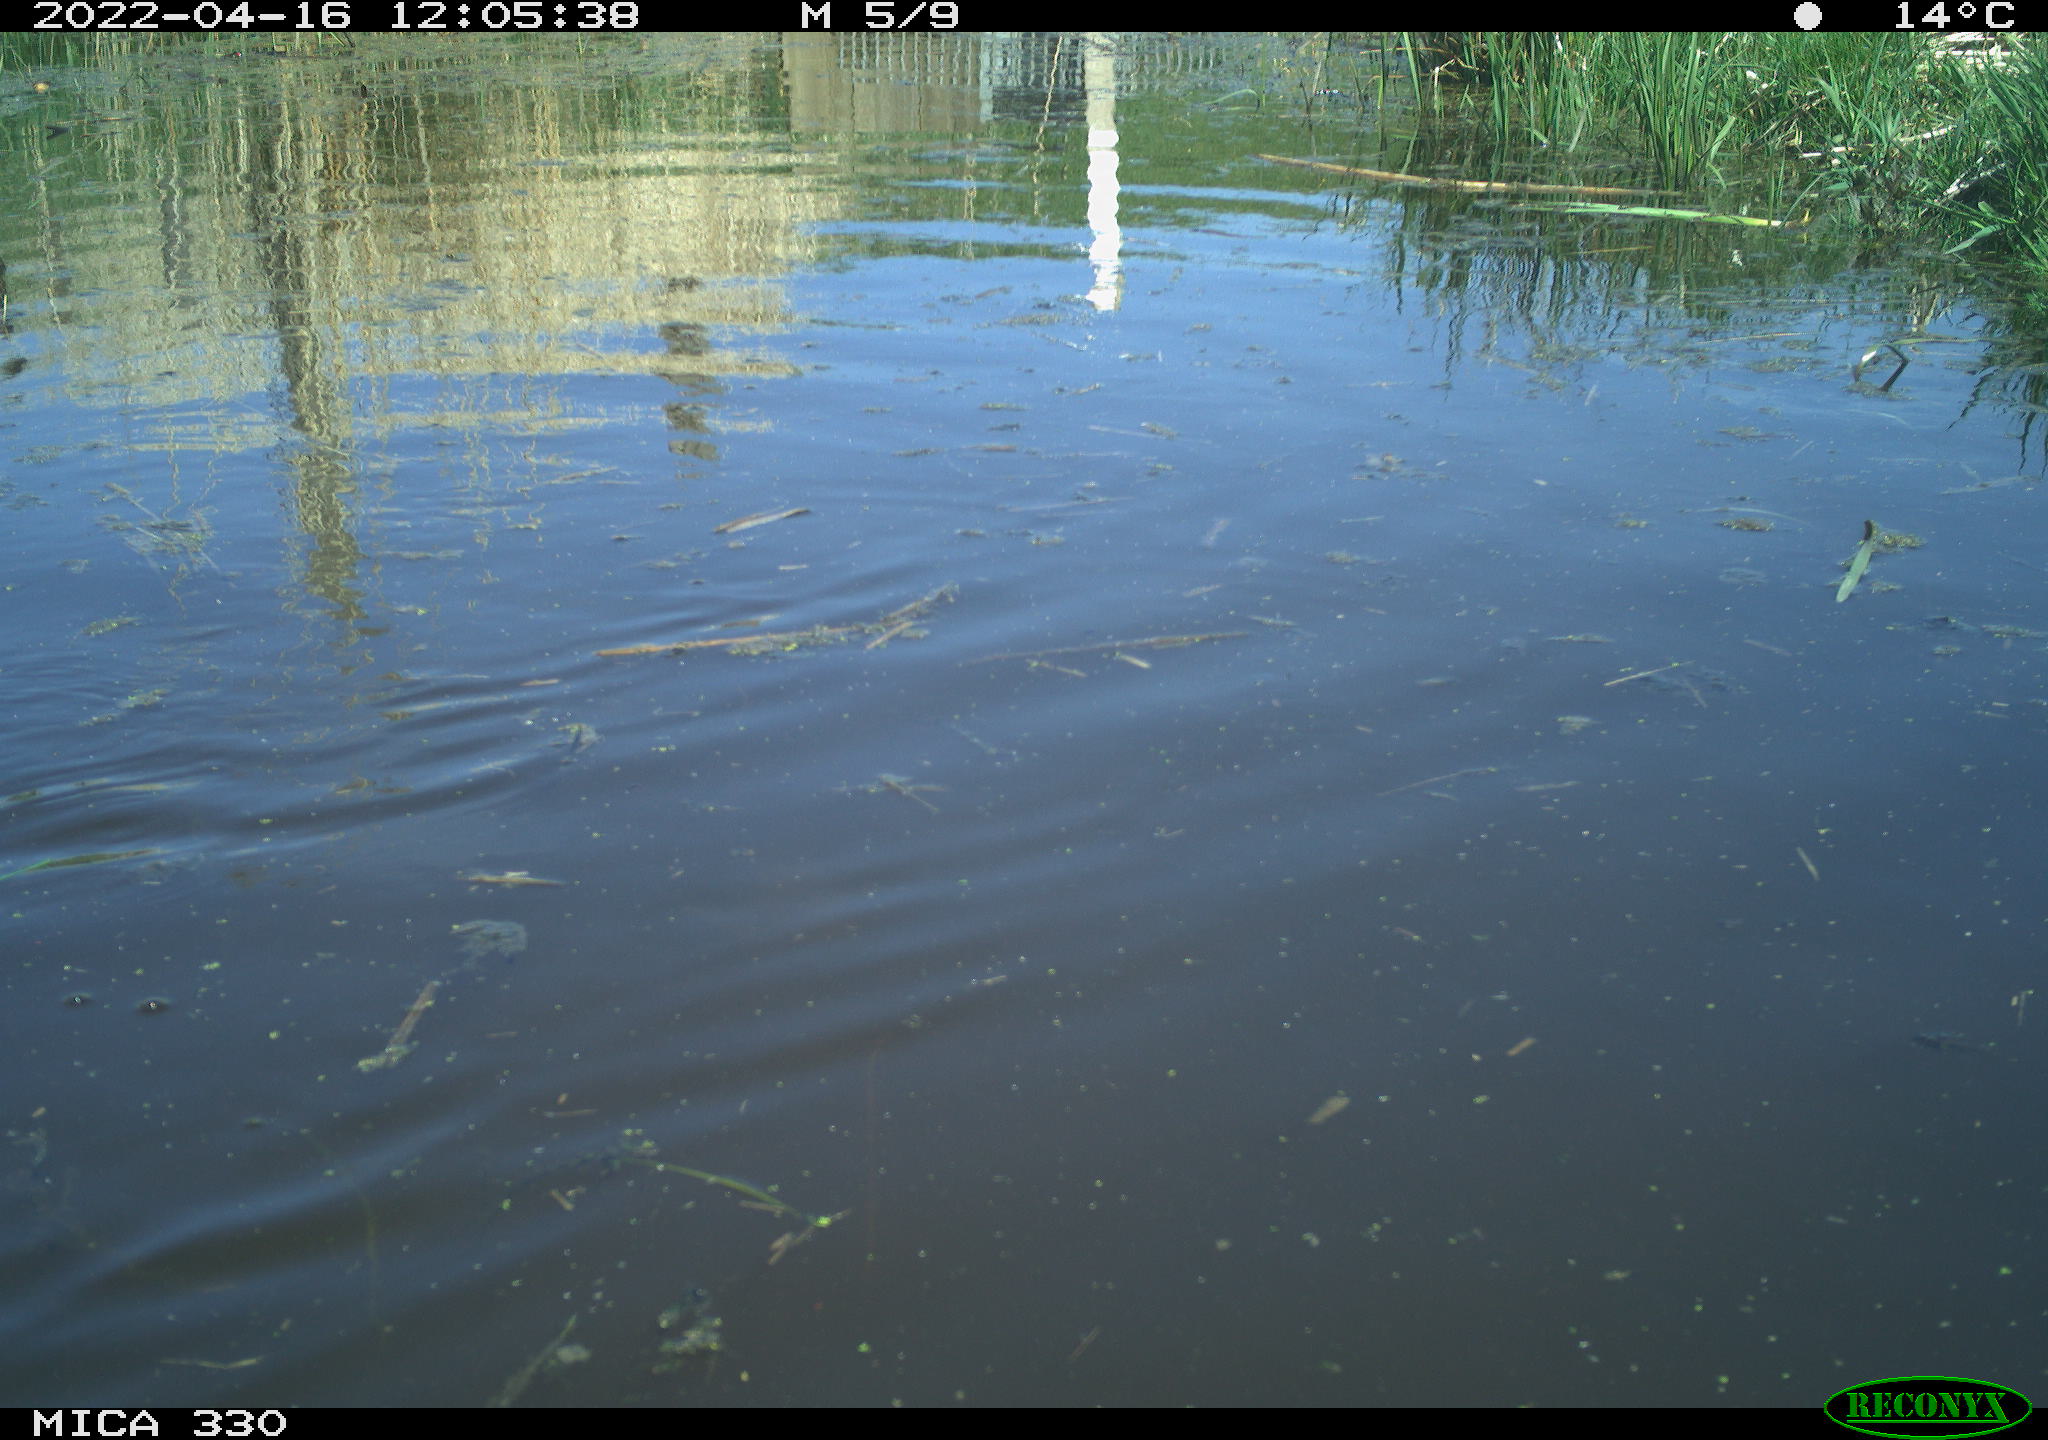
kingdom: Animalia
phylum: Chordata
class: Aves
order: Anseriformes
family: Anatidae
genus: Anas
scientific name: Anas platyrhynchos
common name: Mallard
